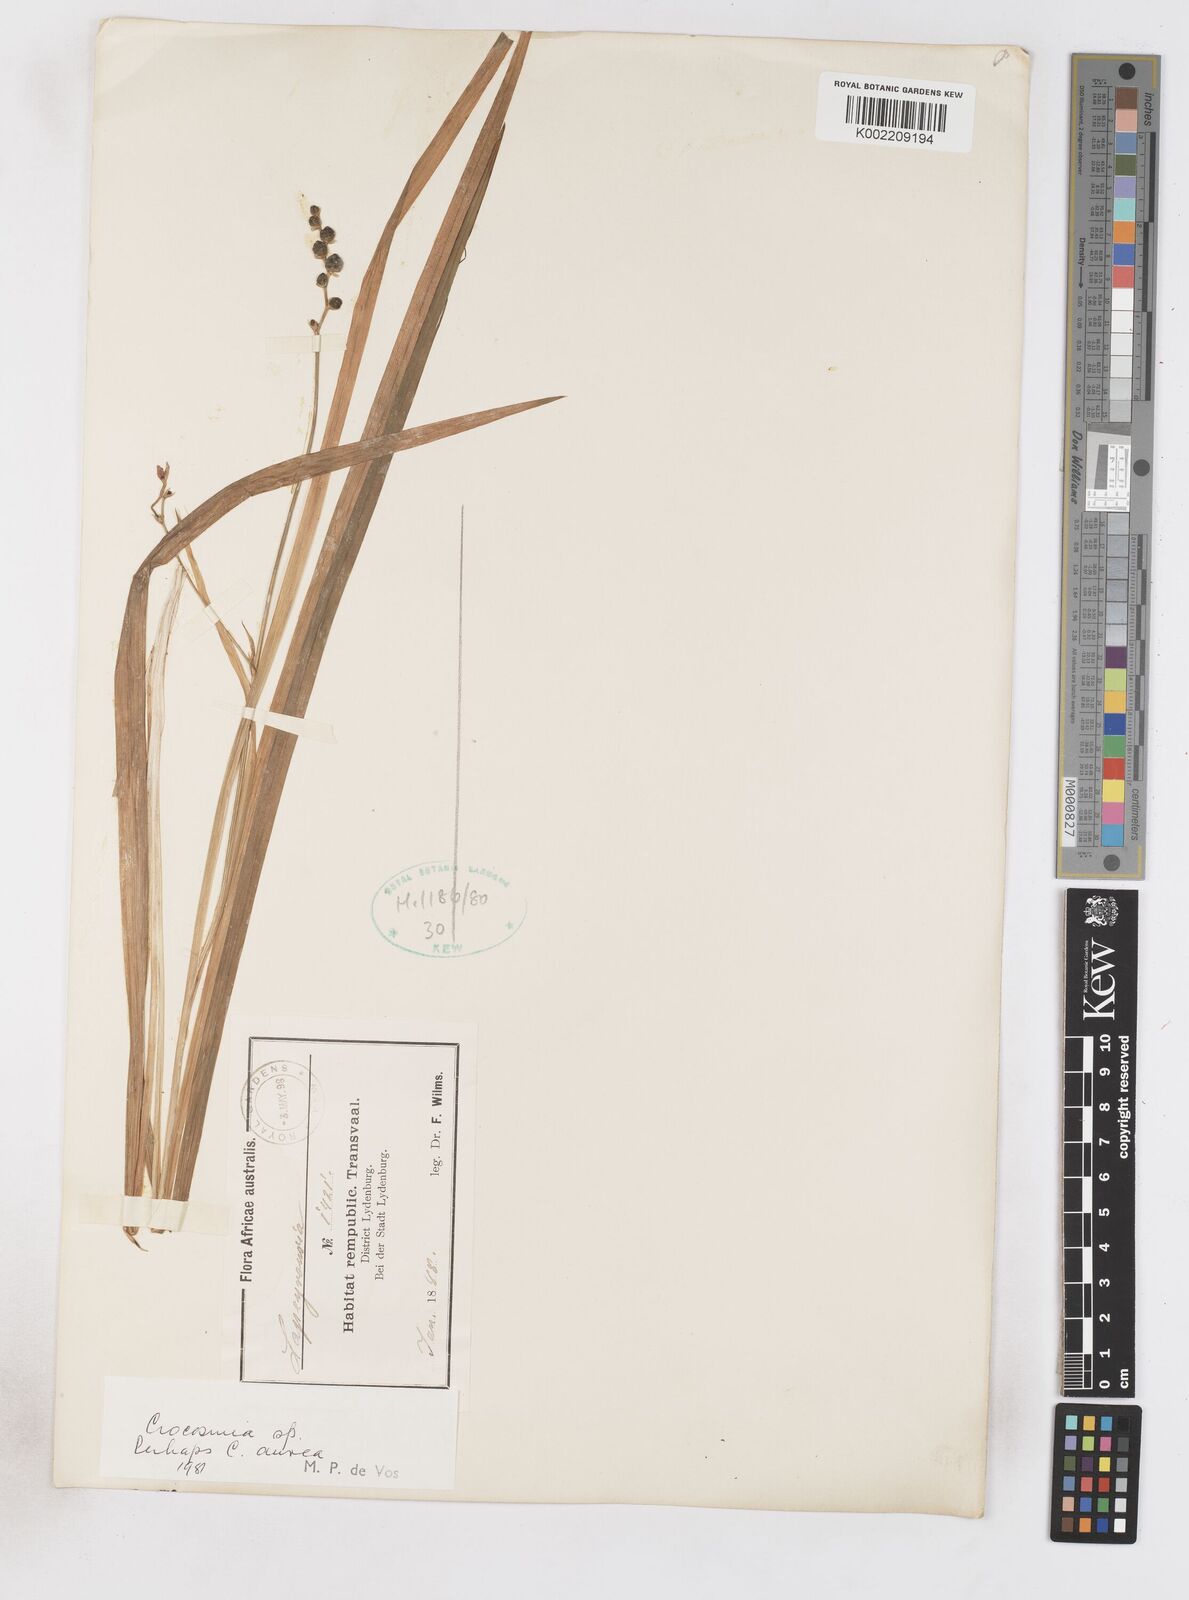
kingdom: Plantae
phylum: Tracheophyta
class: Liliopsida
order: Asparagales
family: Iridaceae
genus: Crocosmia
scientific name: Crocosmia aurea
